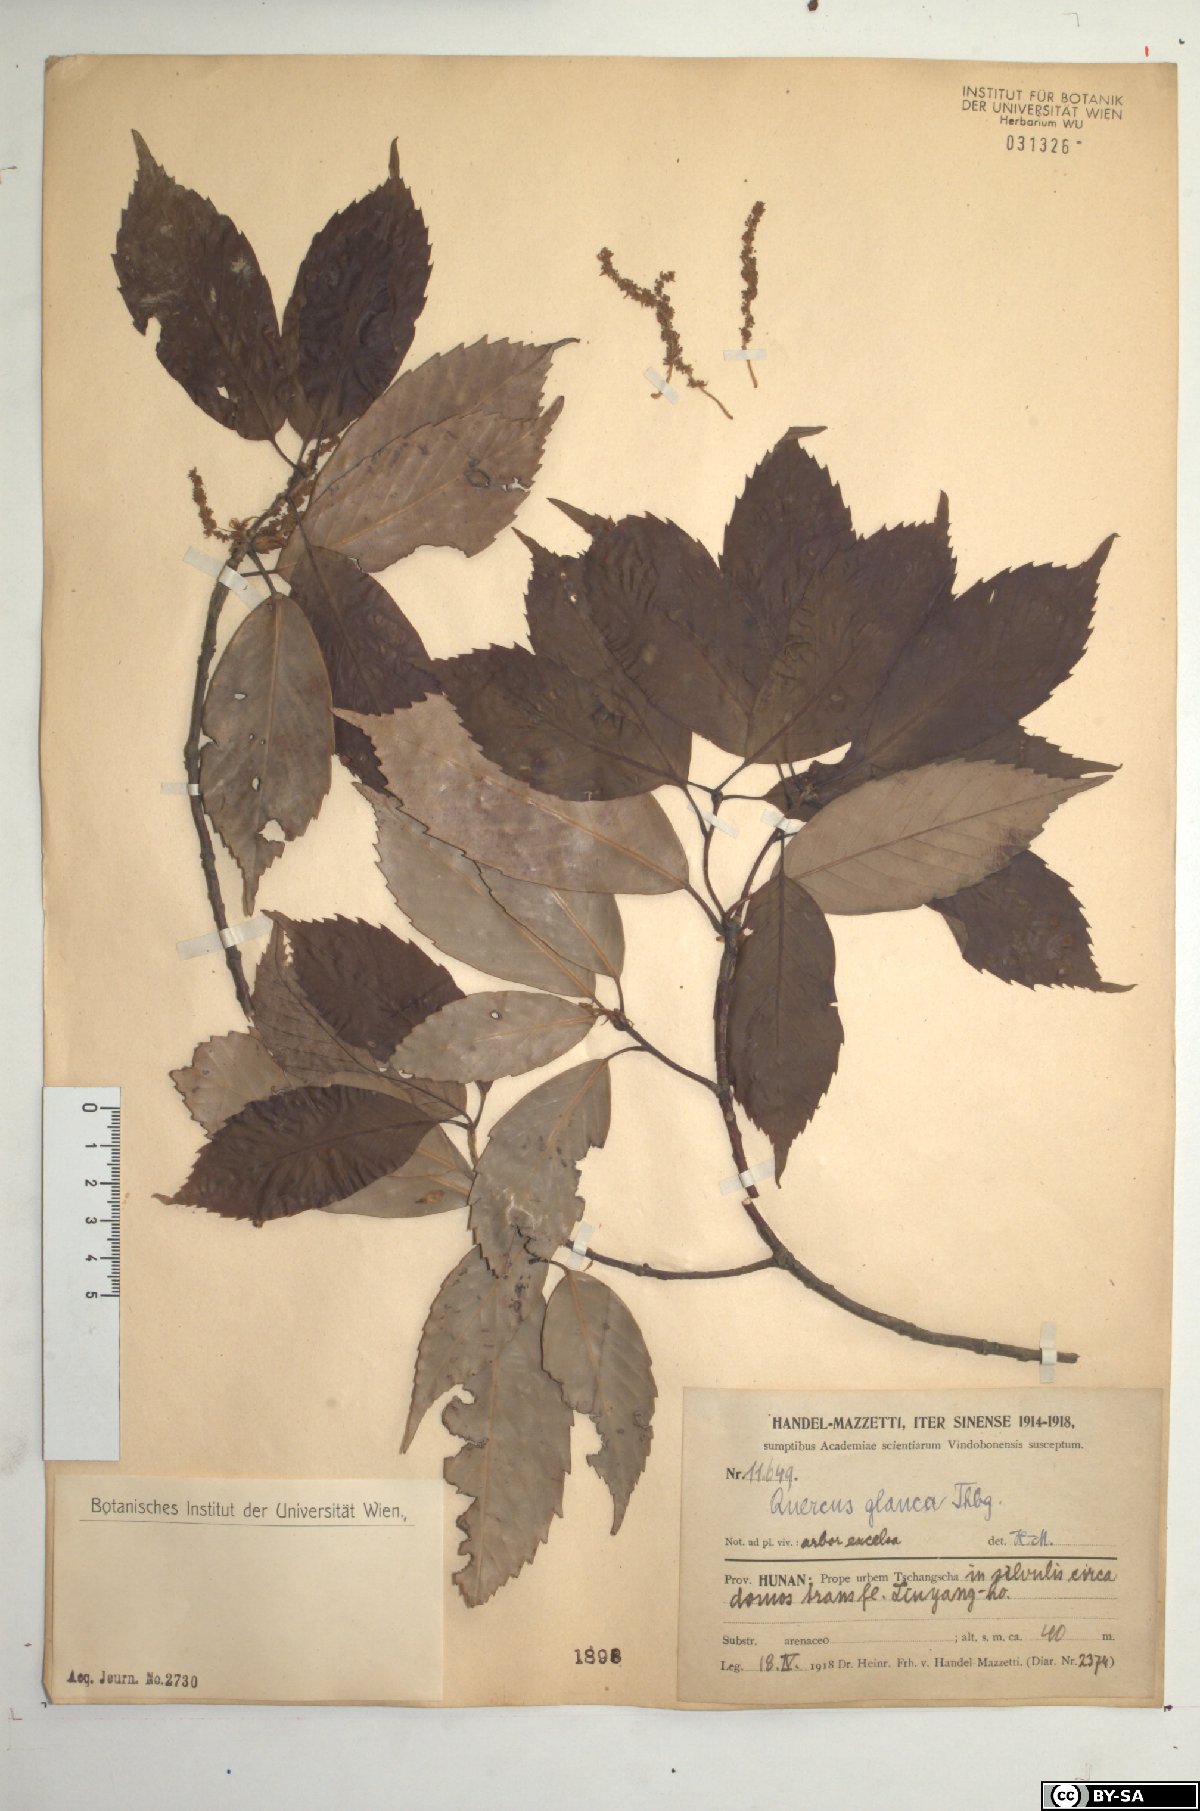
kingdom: Plantae
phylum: Tracheophyta
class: Magnoliopsida
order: Fagales
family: Fagaceae
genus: Quercus
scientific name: Quercus glauca
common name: Ring-cup oak
